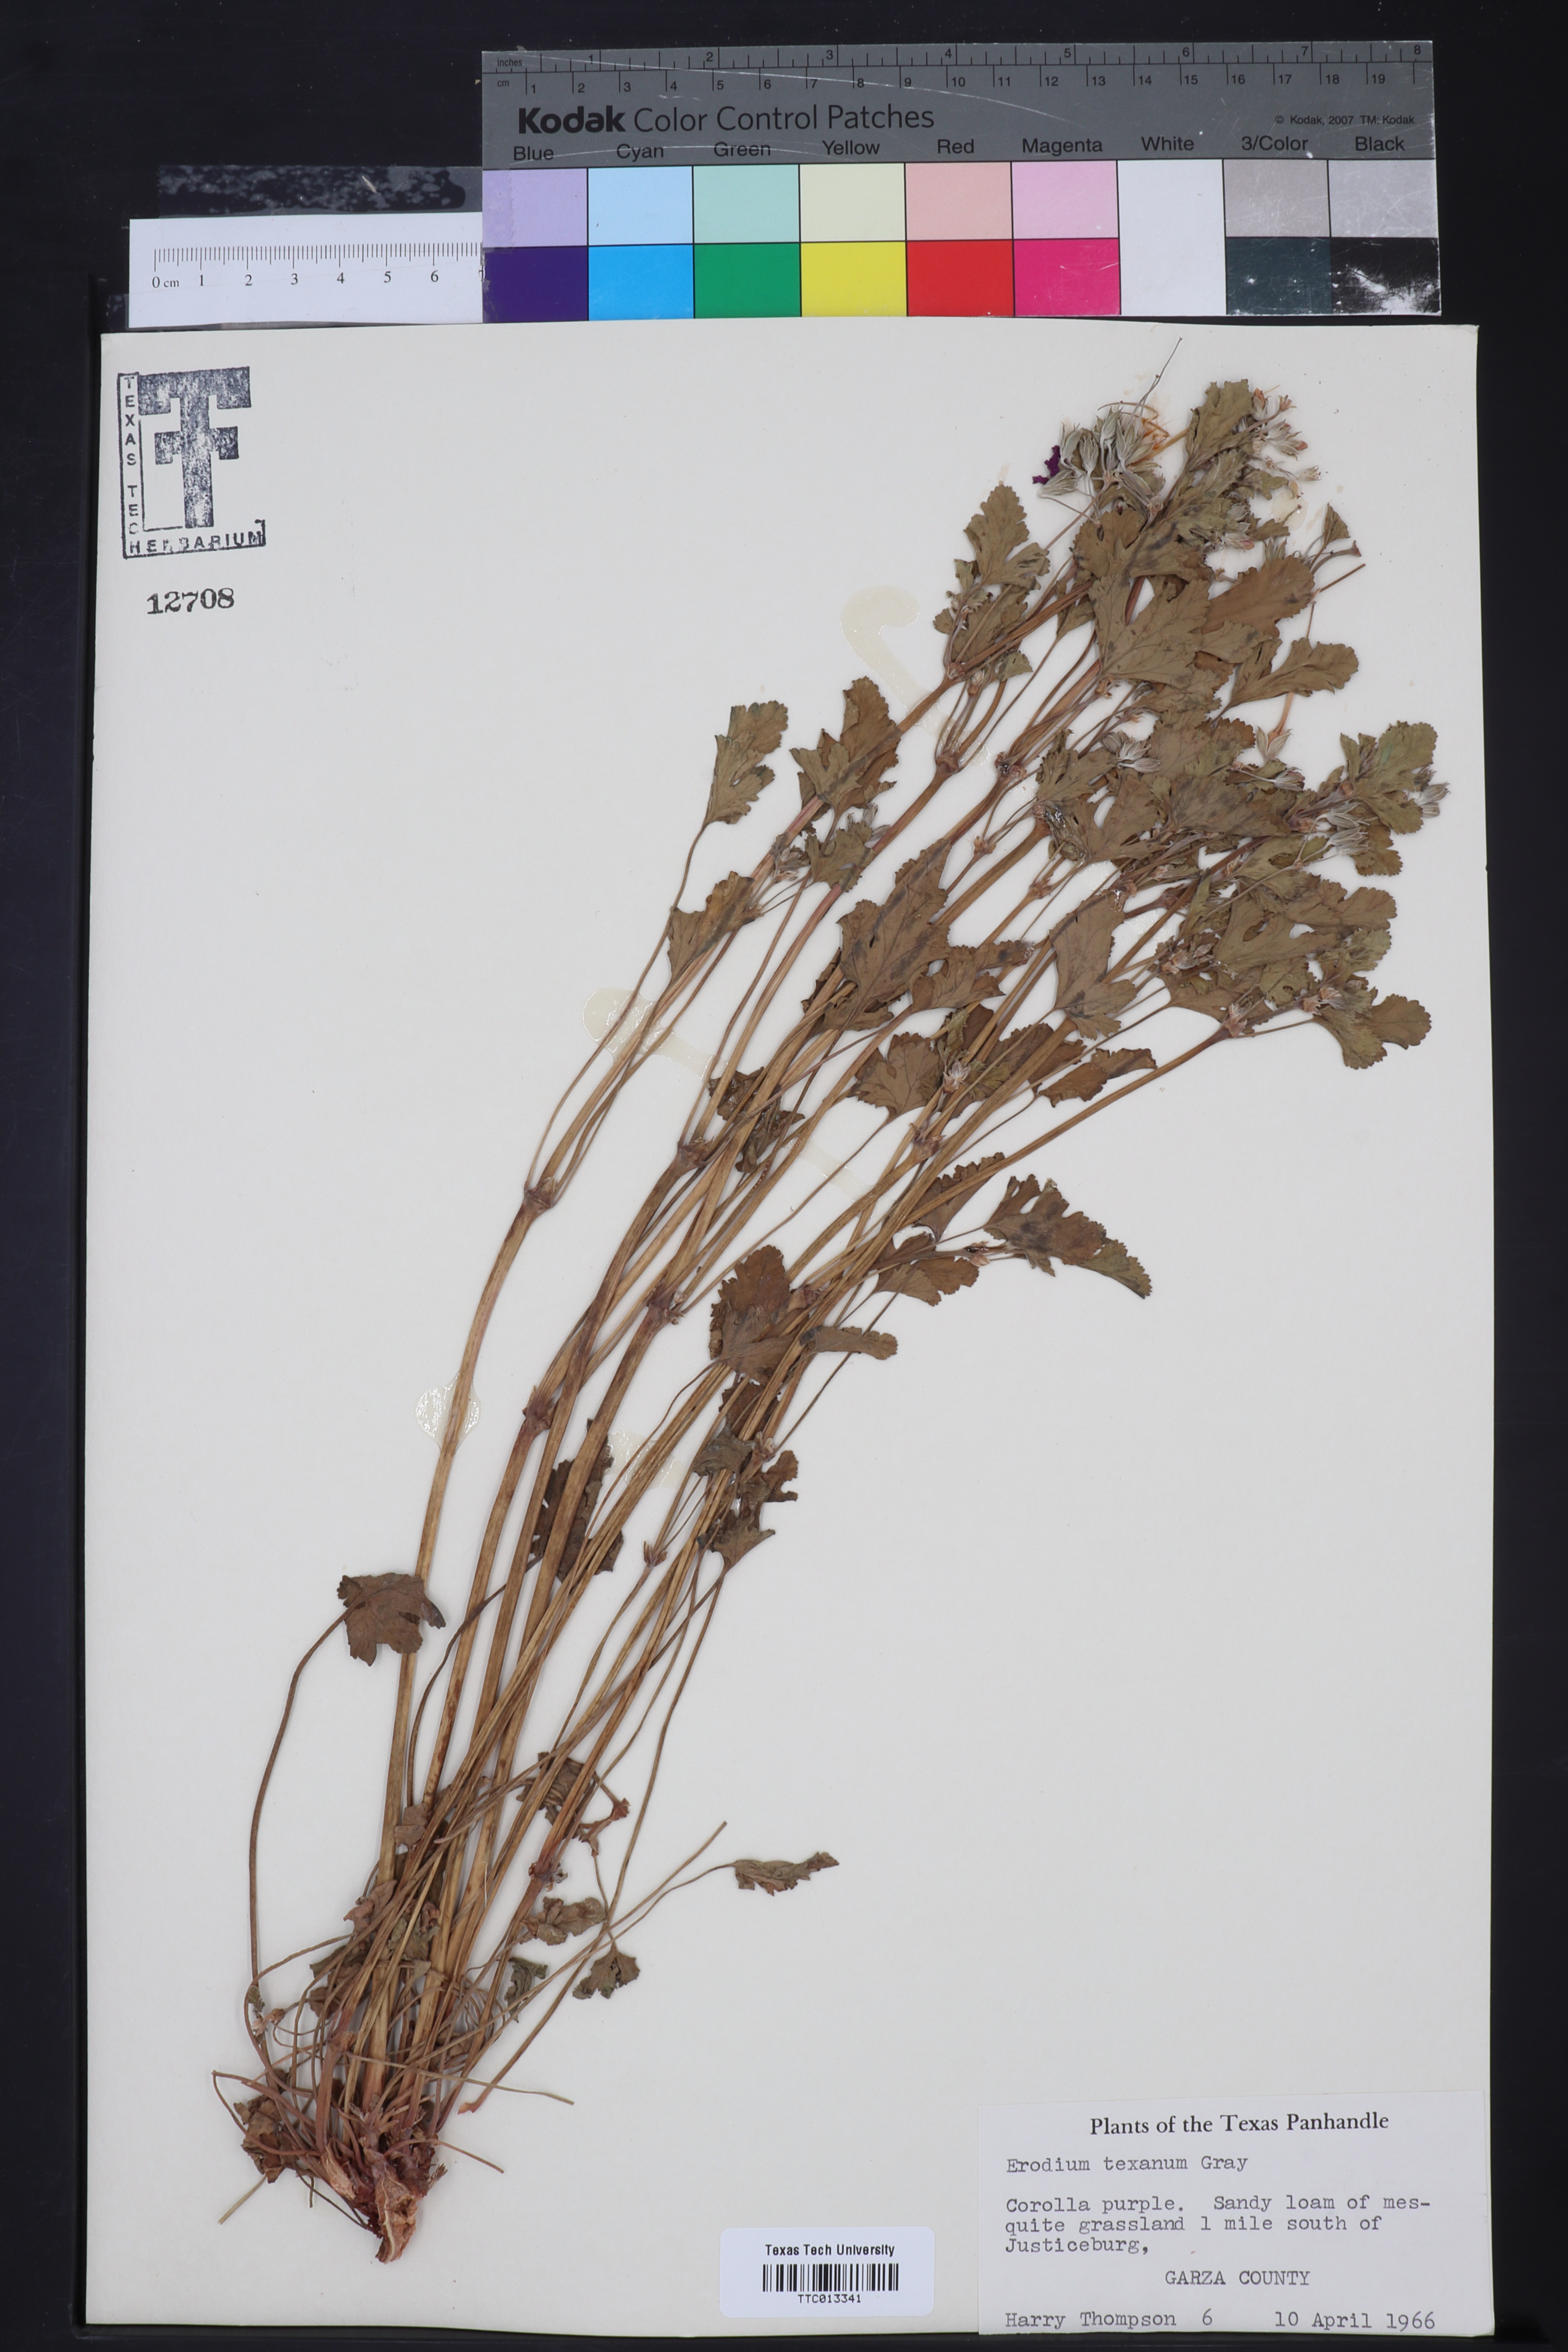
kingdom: Plantae
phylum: Tracheophyta
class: Magnoliopsida
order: Geraniales
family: Geraniaceae
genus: Erodium
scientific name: Erodium texanum
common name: Texas stork's-bill
